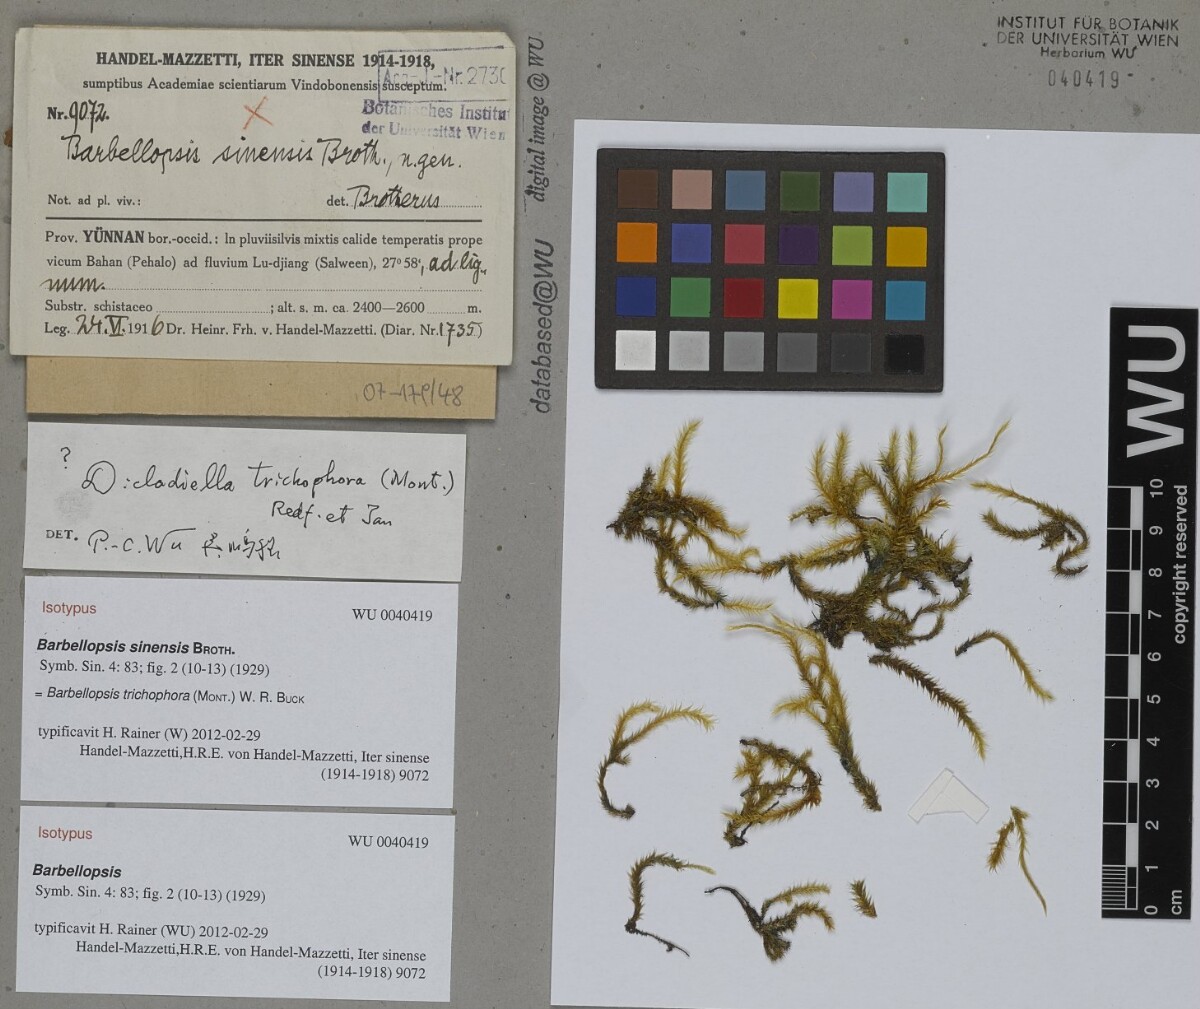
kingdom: Plantae
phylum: Bryophyta
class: Bryopsida
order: Hypnales
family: Meteoriaceae
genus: Barbellopsis
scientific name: Barbellopsis trichophora
